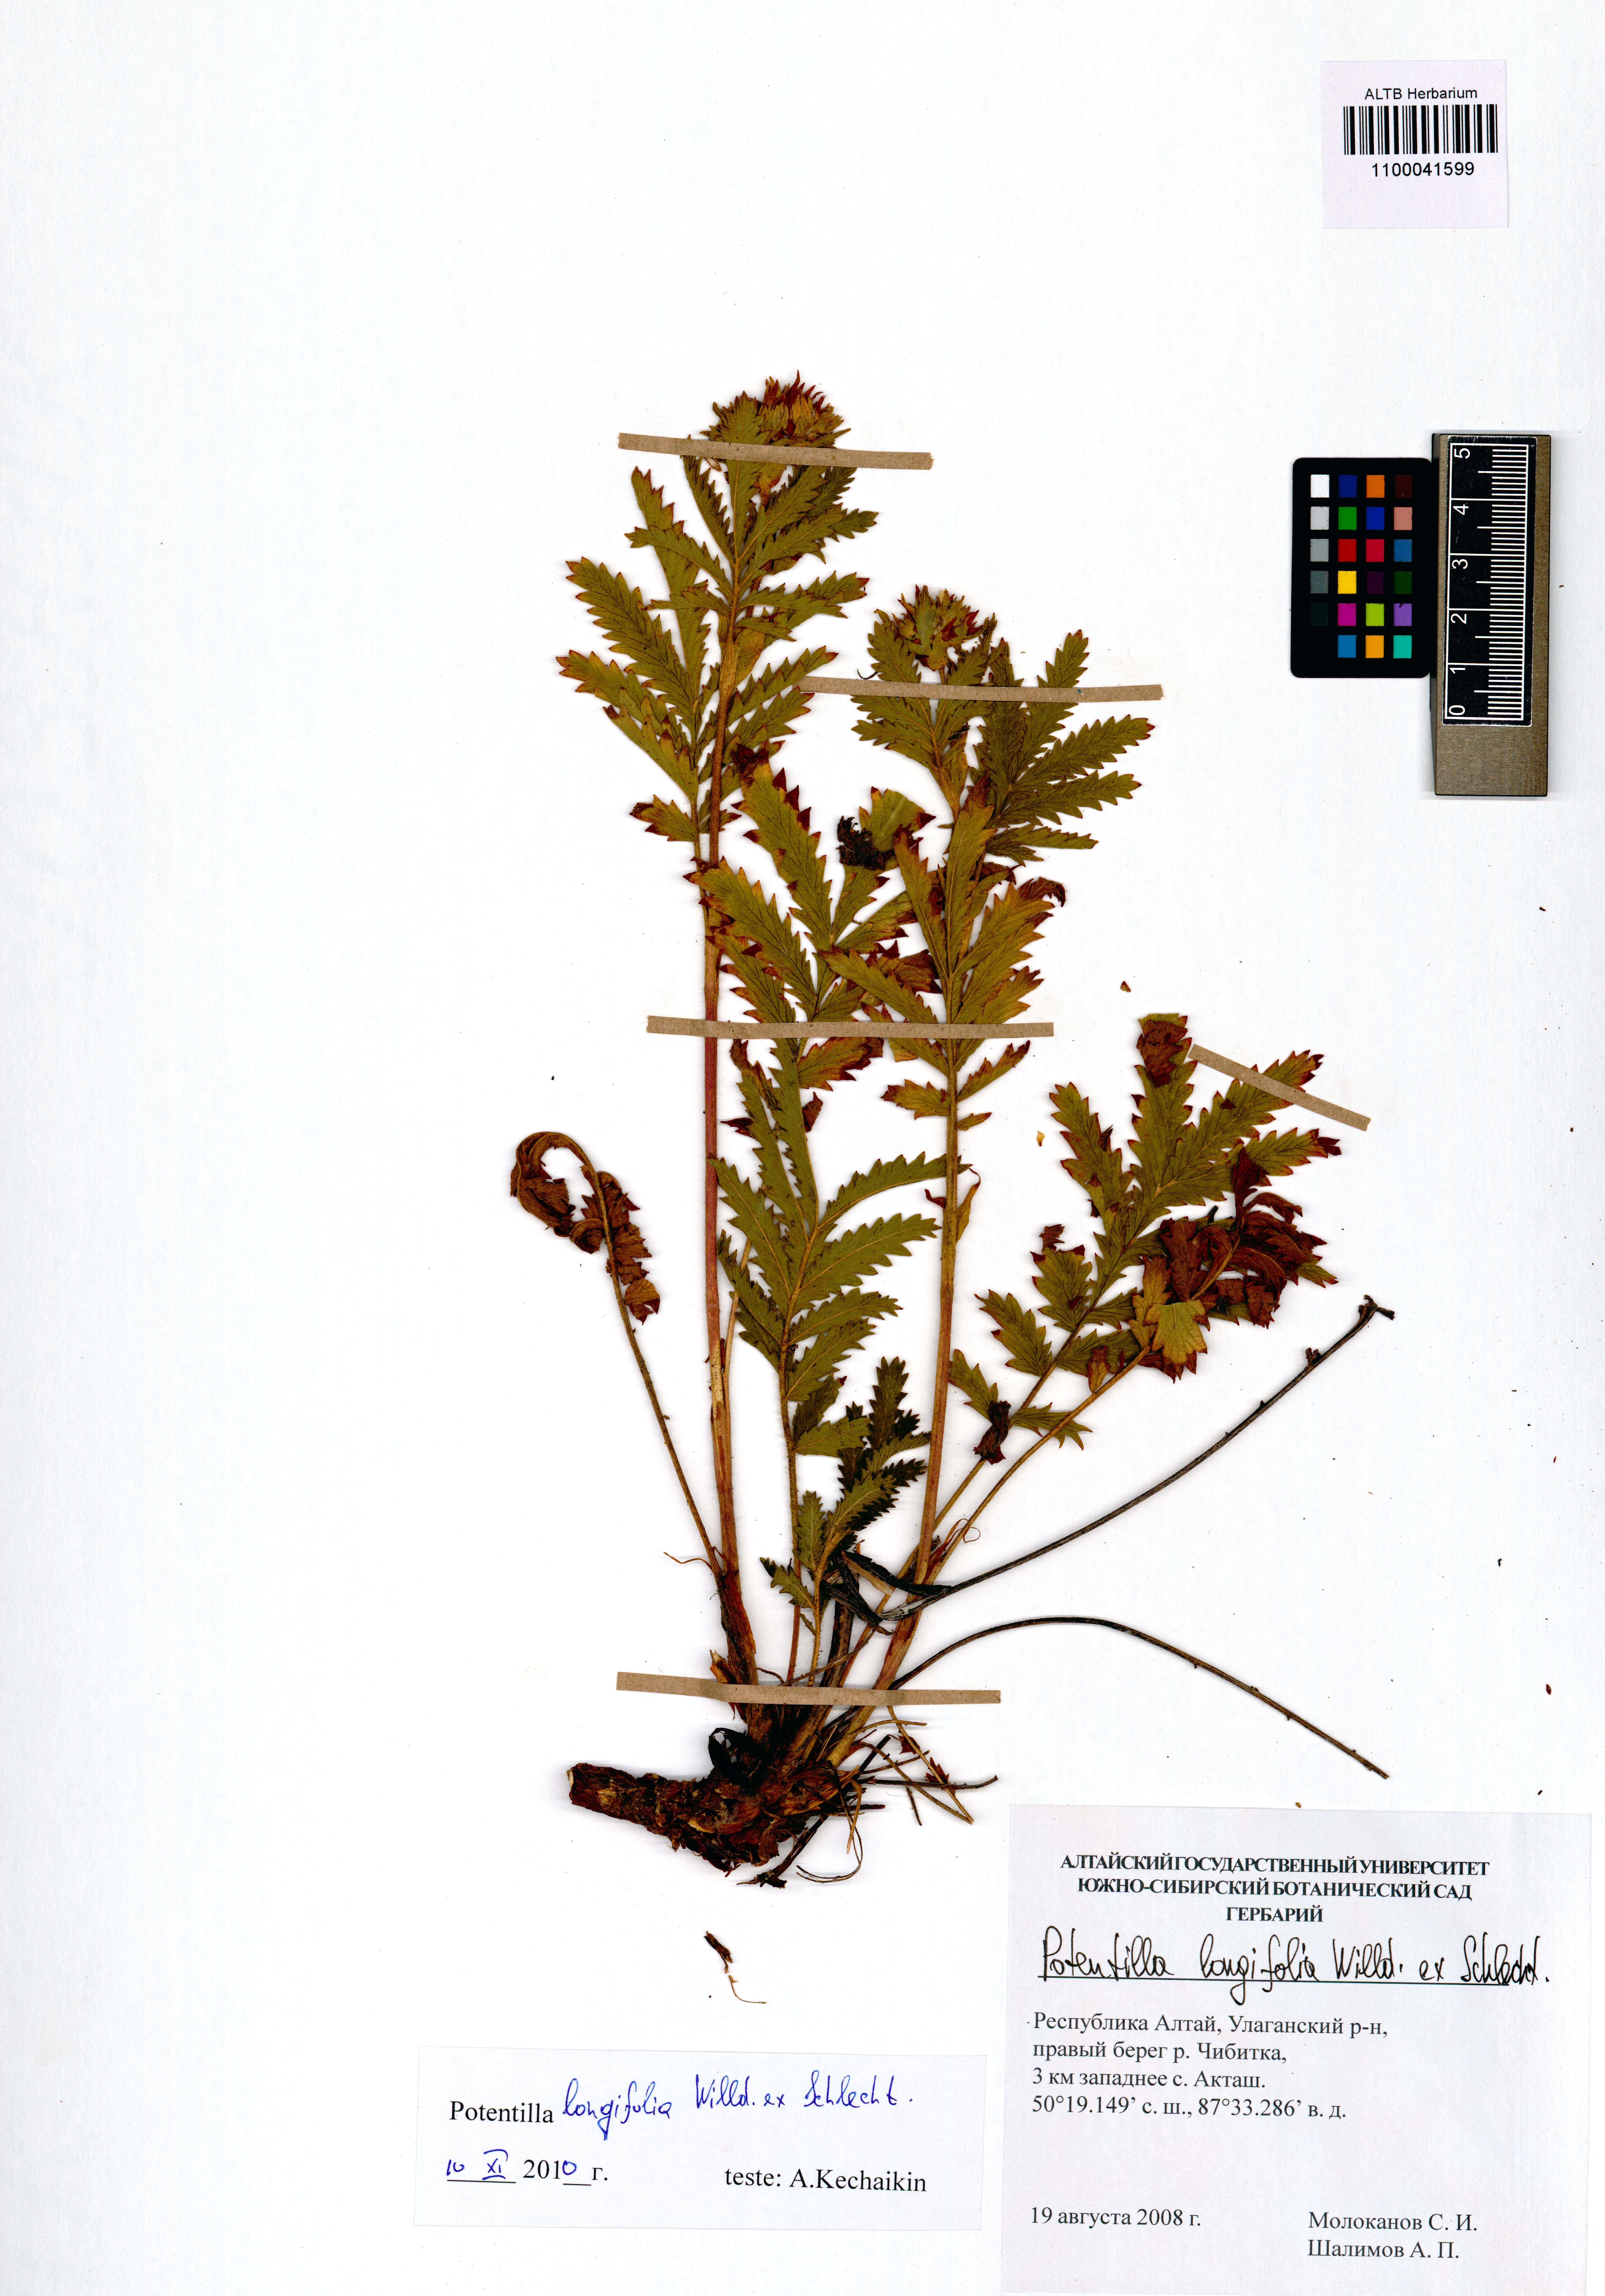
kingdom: Plantae
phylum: Tracheophyta
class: Magnoliopsida
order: Rosales
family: Rosaceae
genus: Potentilla
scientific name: Potentilla longifolia
